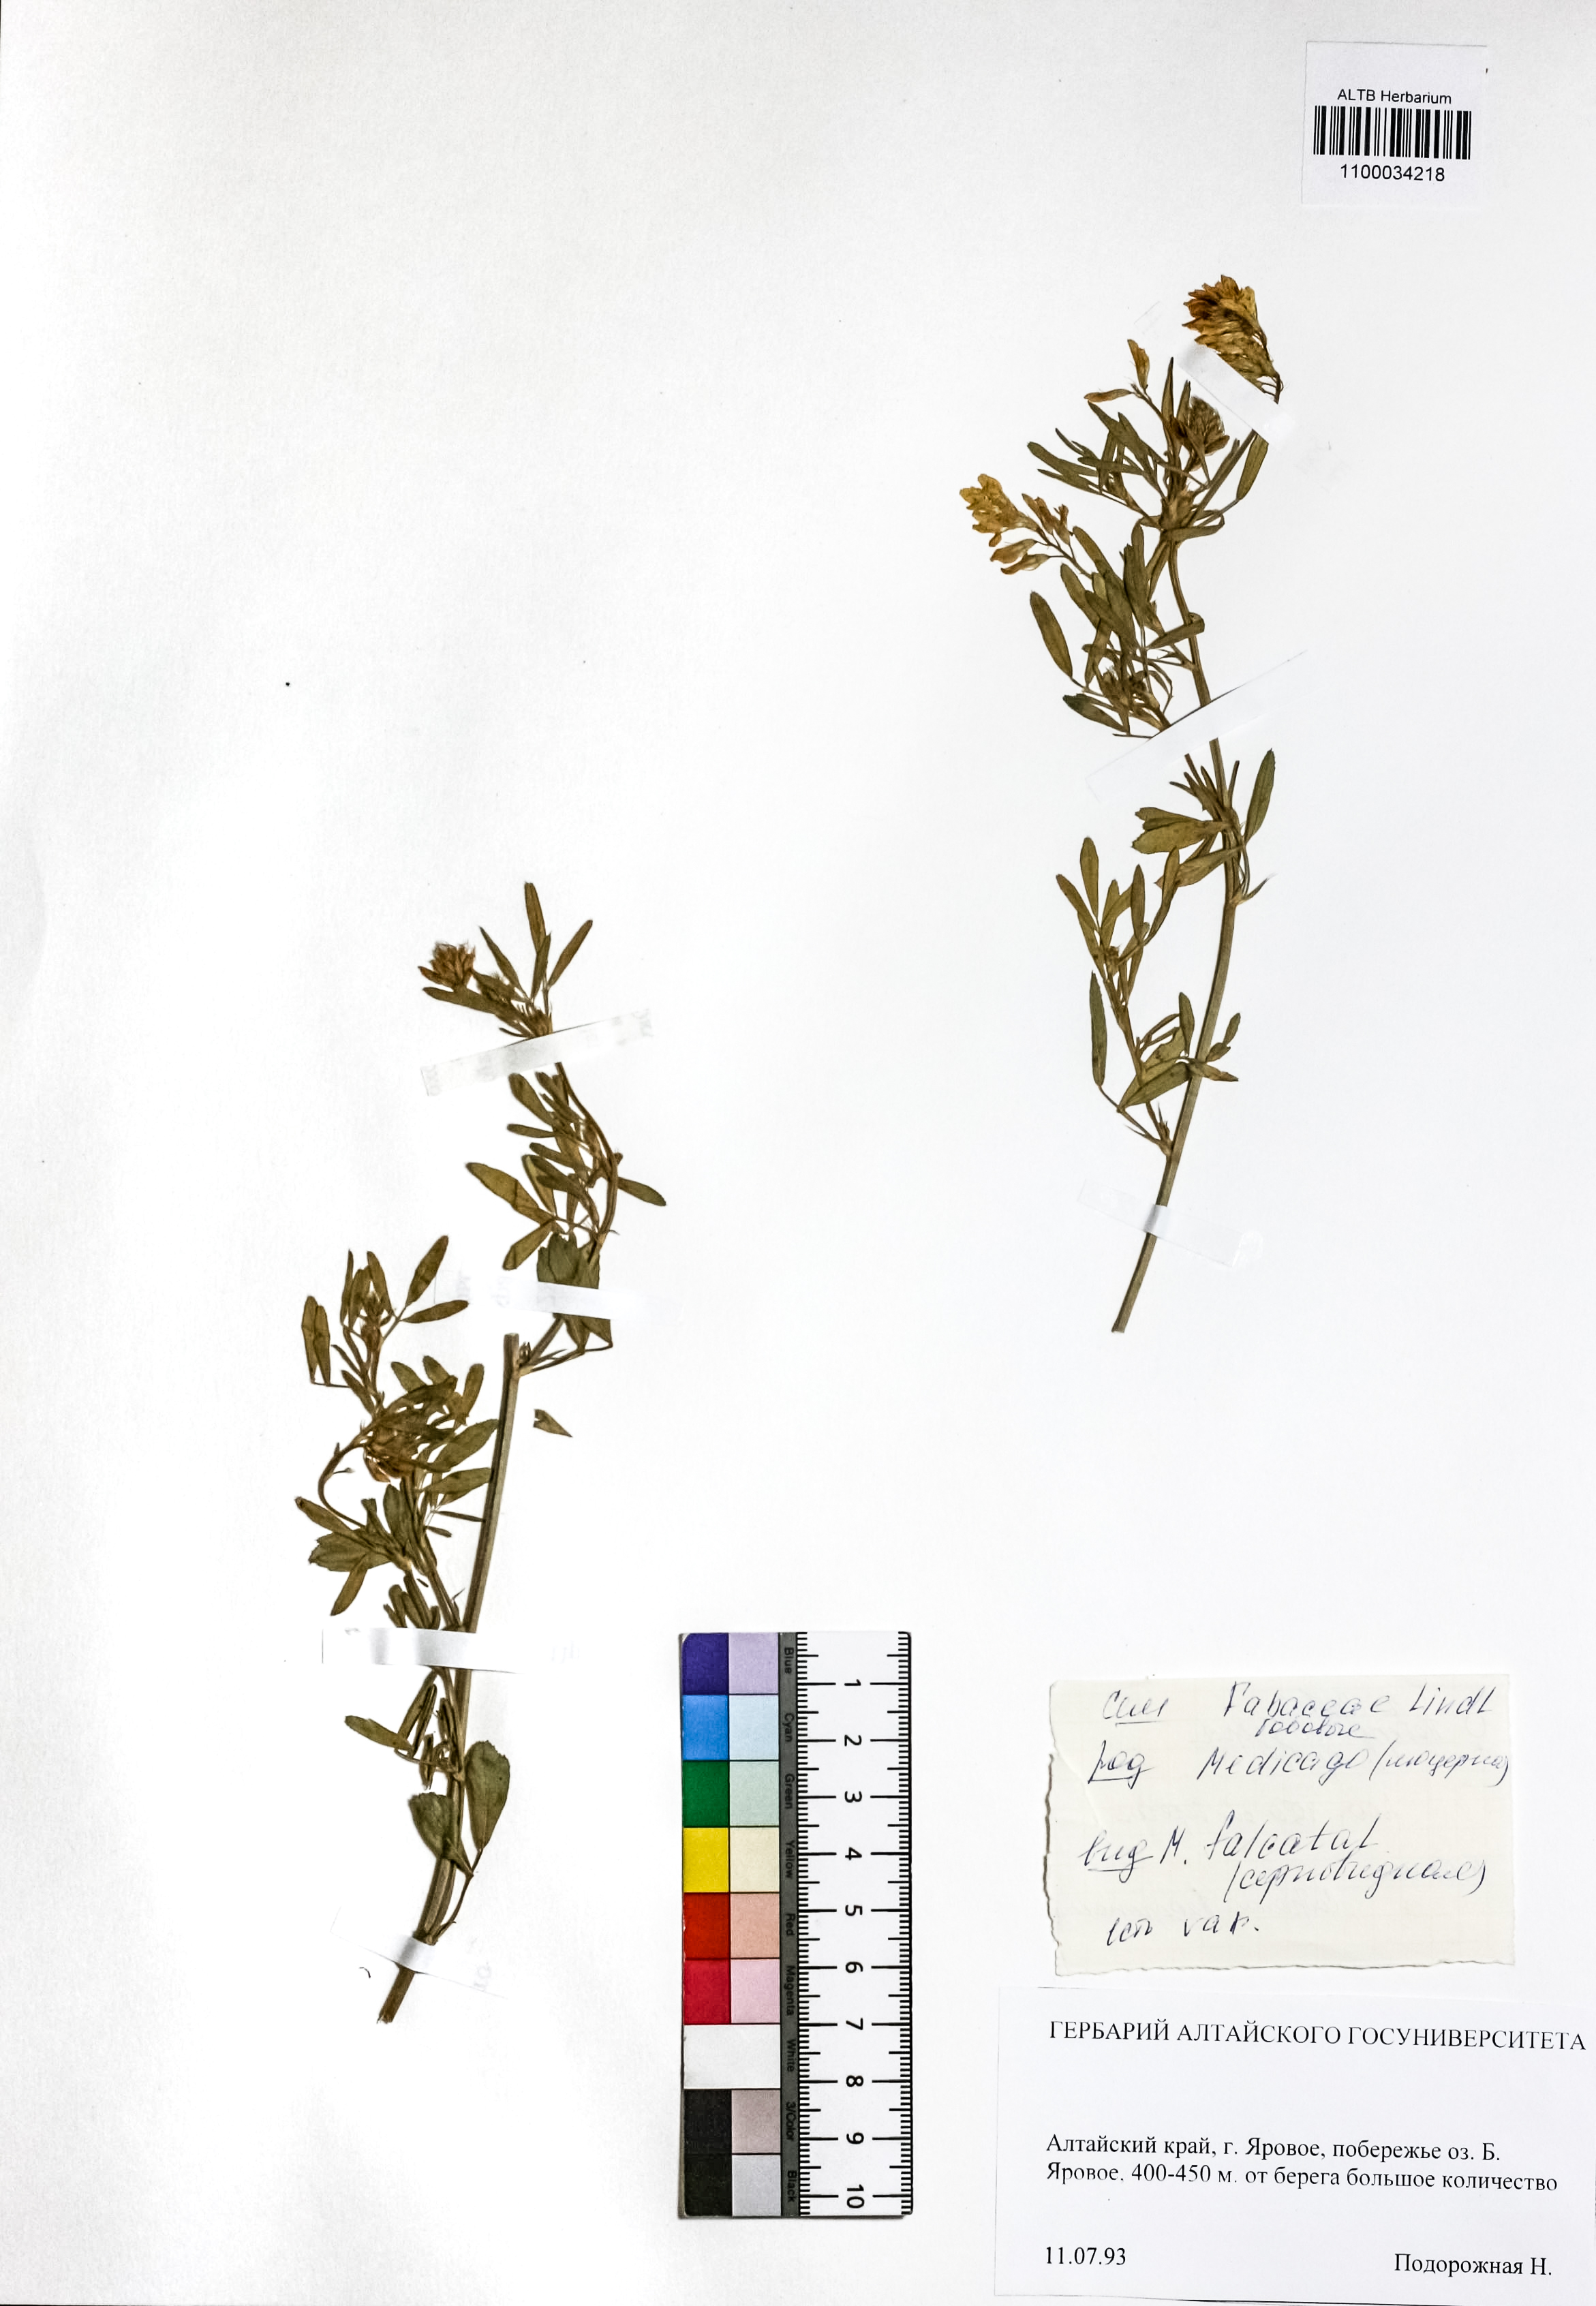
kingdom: Plantae
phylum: Tracheophyta
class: Magnoliopsida
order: Fabales
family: Fabaceae
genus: Medicago
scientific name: Medicago falcata
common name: Sickle medick
